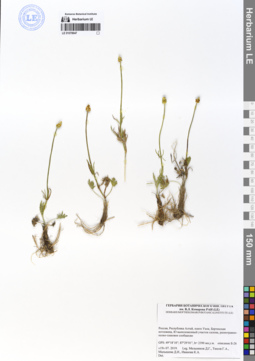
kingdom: Plantae
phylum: Tracheophyta
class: Magnoliopsida
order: Ranunculales
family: Ranunculaceae
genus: Ranunculus
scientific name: Ranunculus pedatifidus
